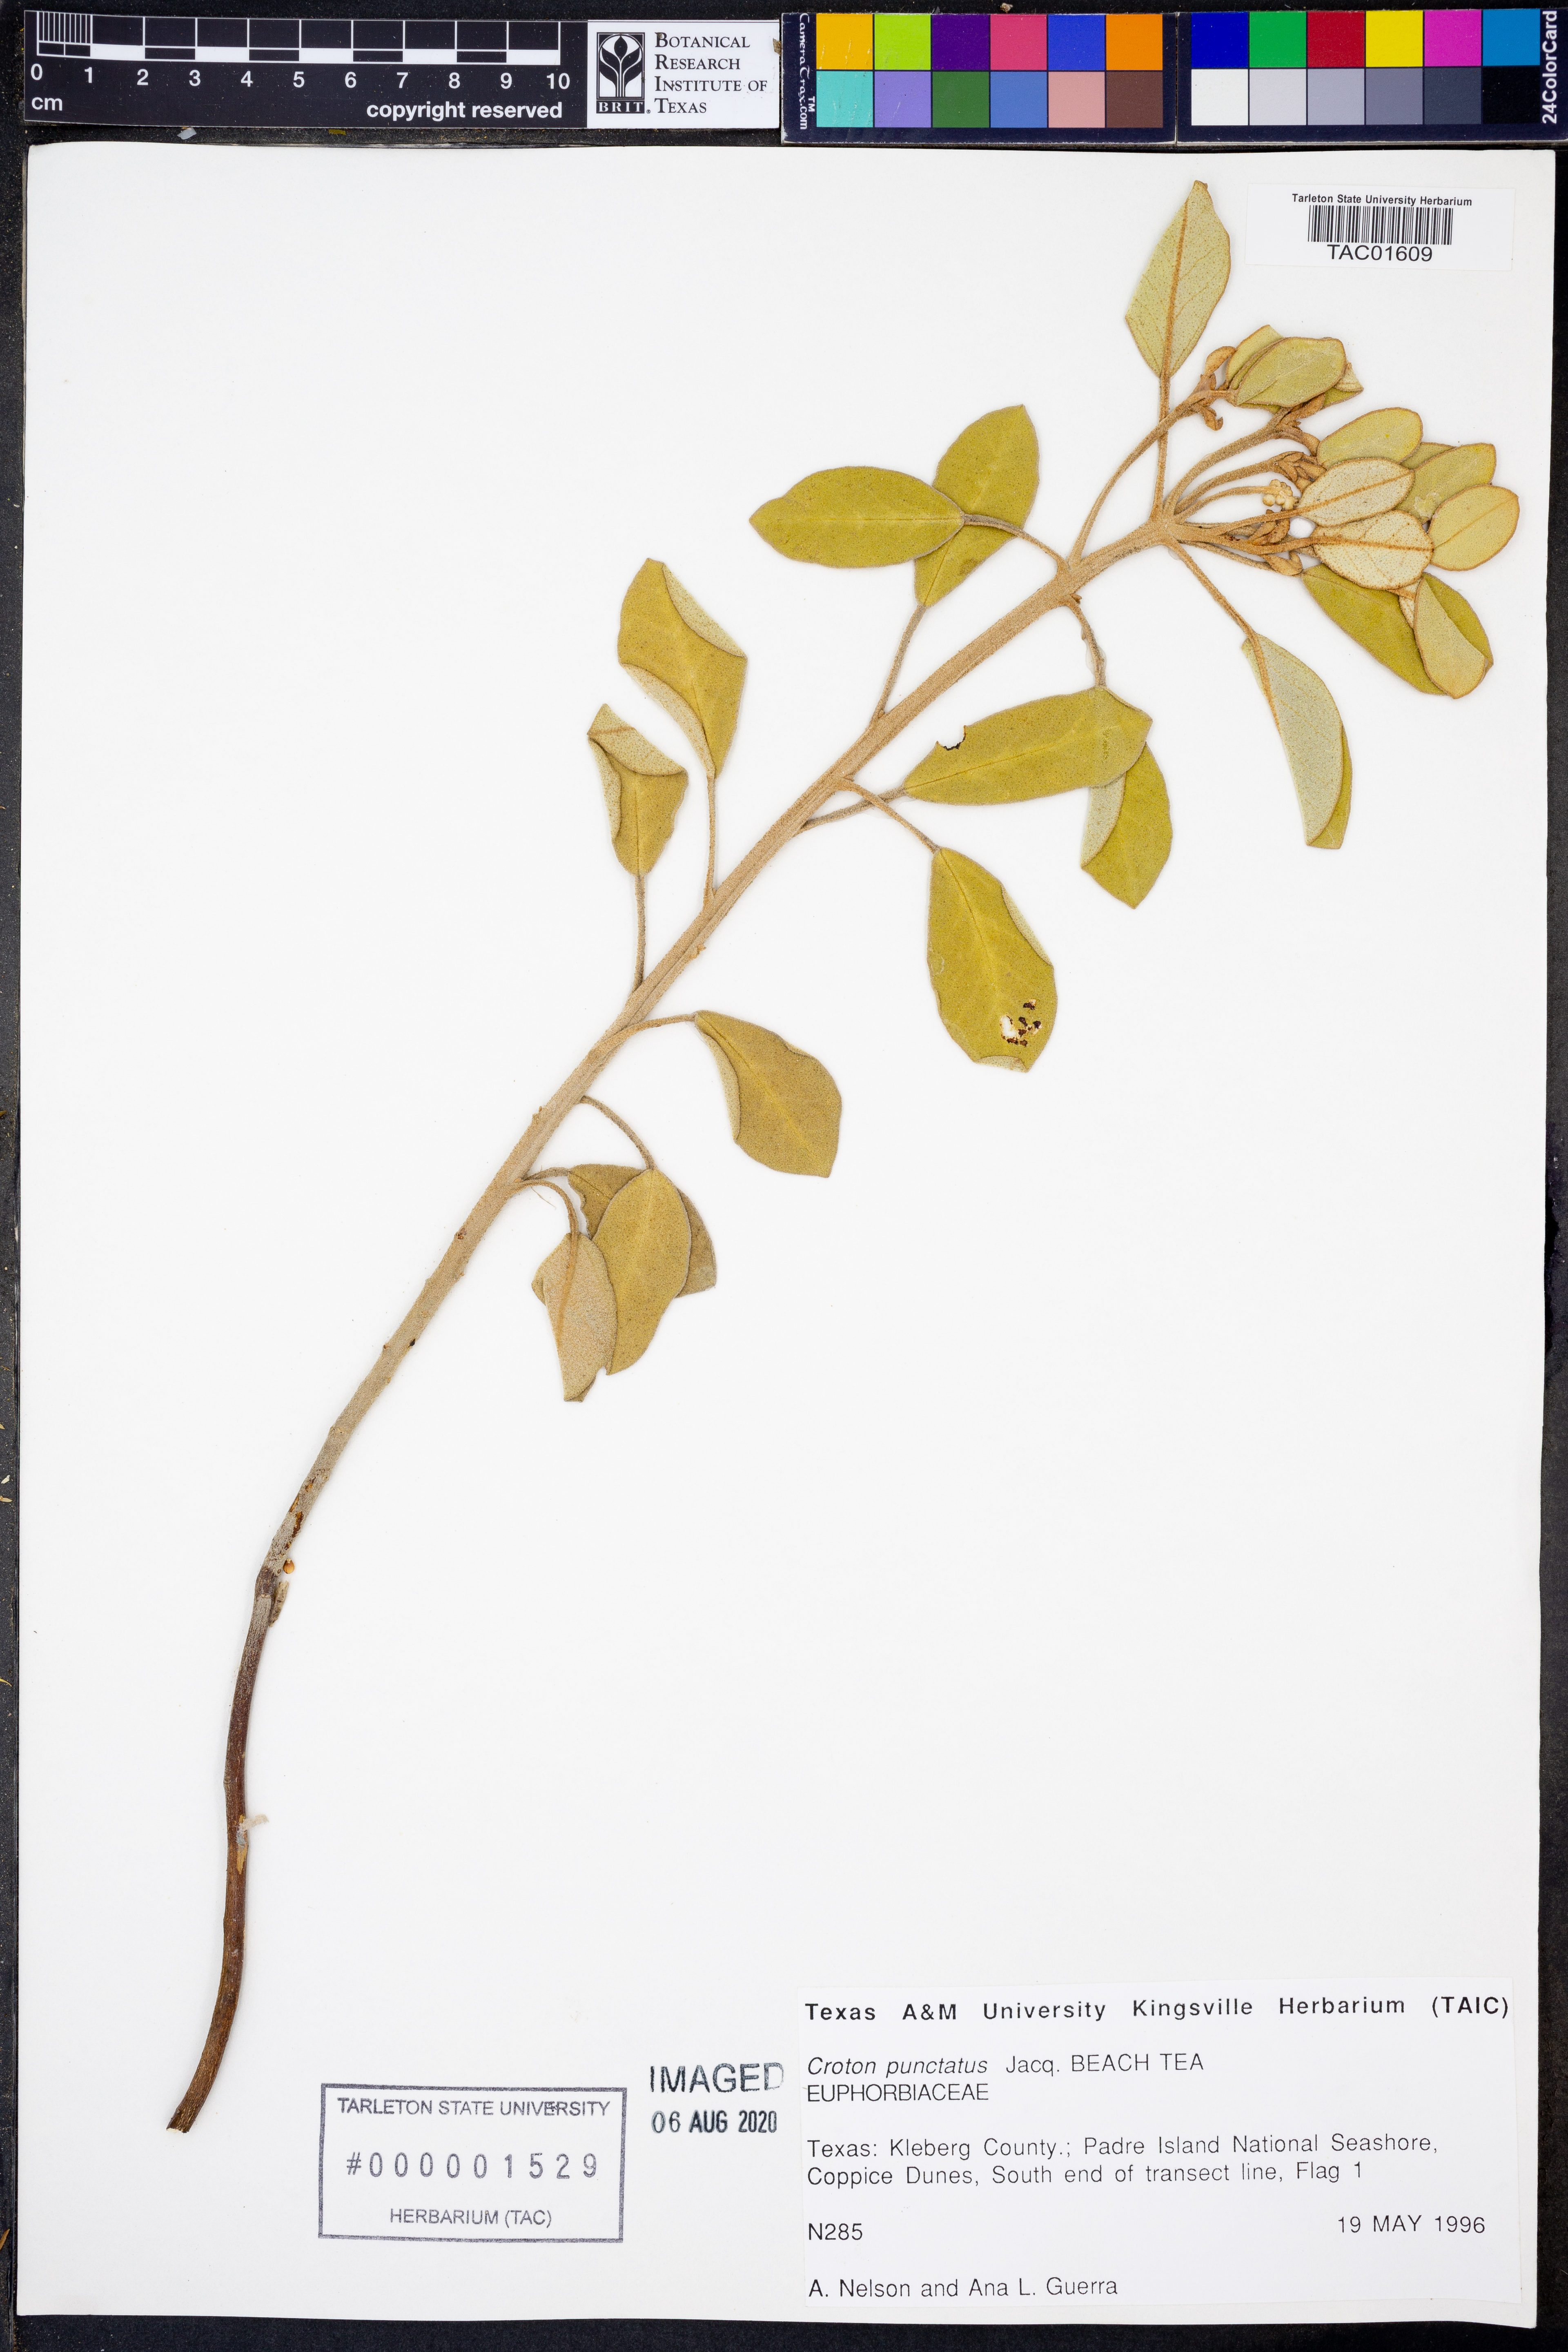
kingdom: Plantae
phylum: Tracheophyta
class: Magnoliopsida
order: Malpighiales
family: Euphorbiaceae
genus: Croton
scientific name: Croton punctatus
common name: Beach-tea
